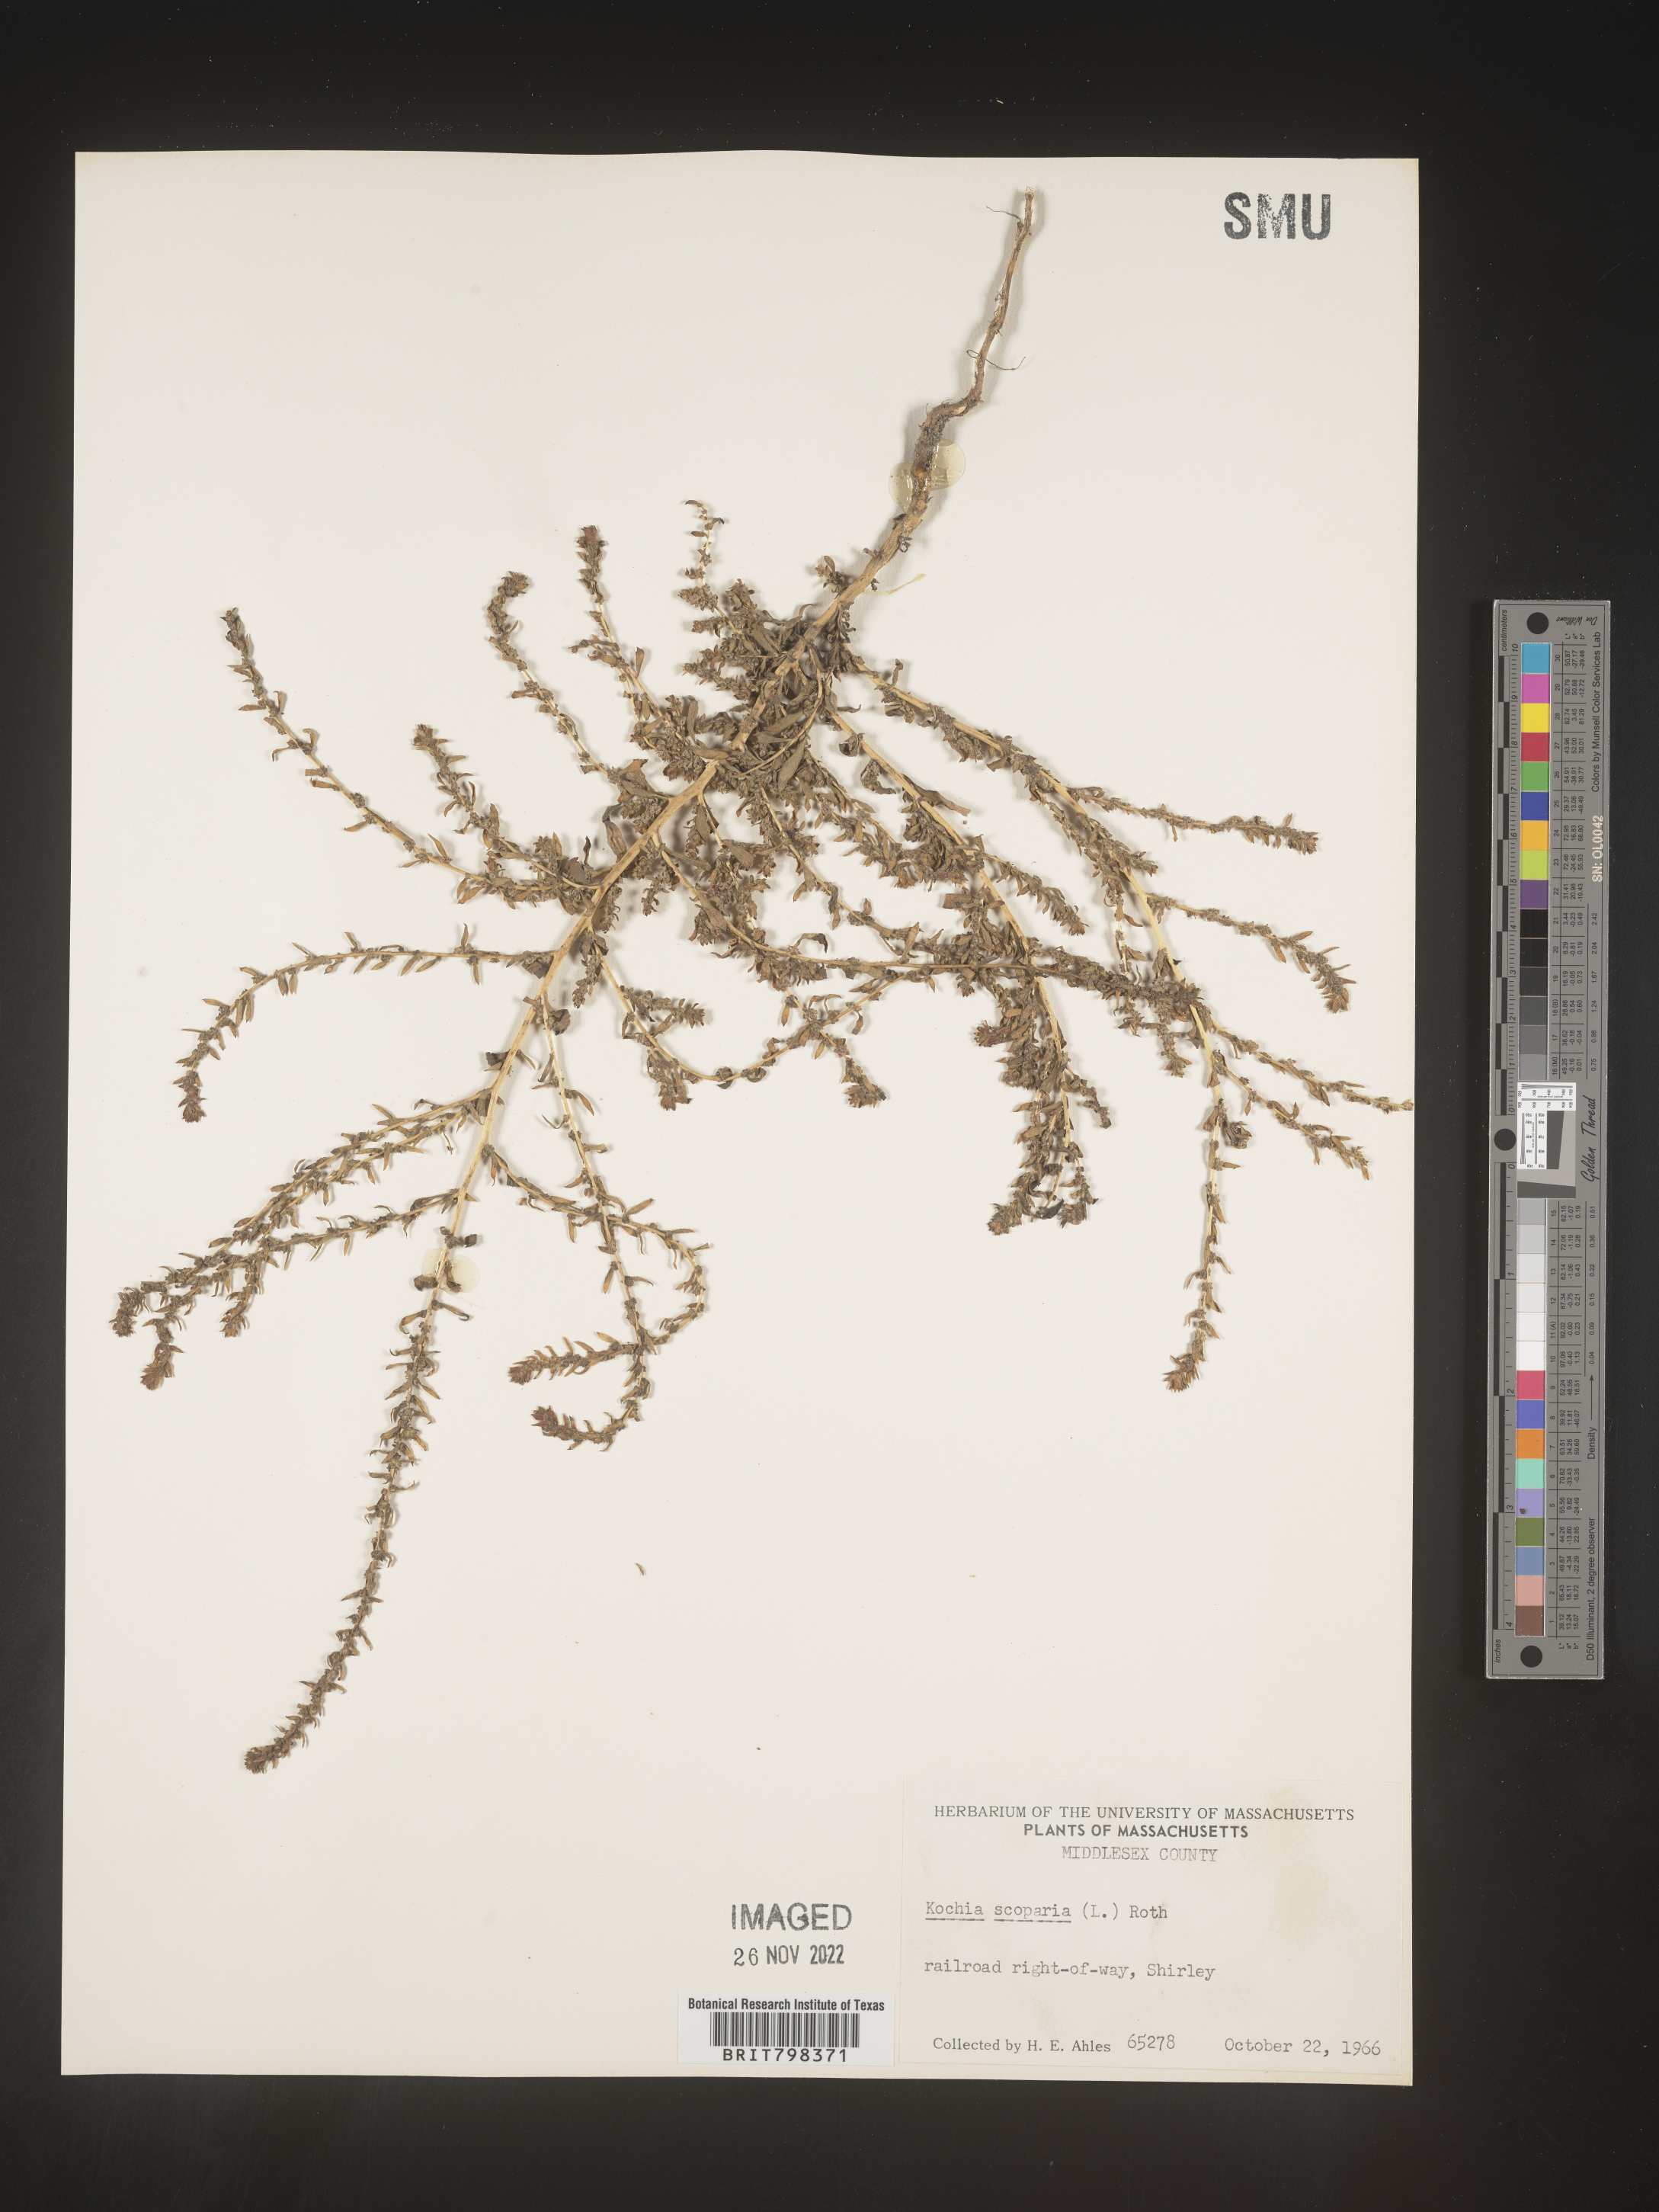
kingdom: Plantae
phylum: Tracheophyta
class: Magnoliopsida
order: Caryophyllales
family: Amaranthaceae
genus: Bassia
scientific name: Bassia
